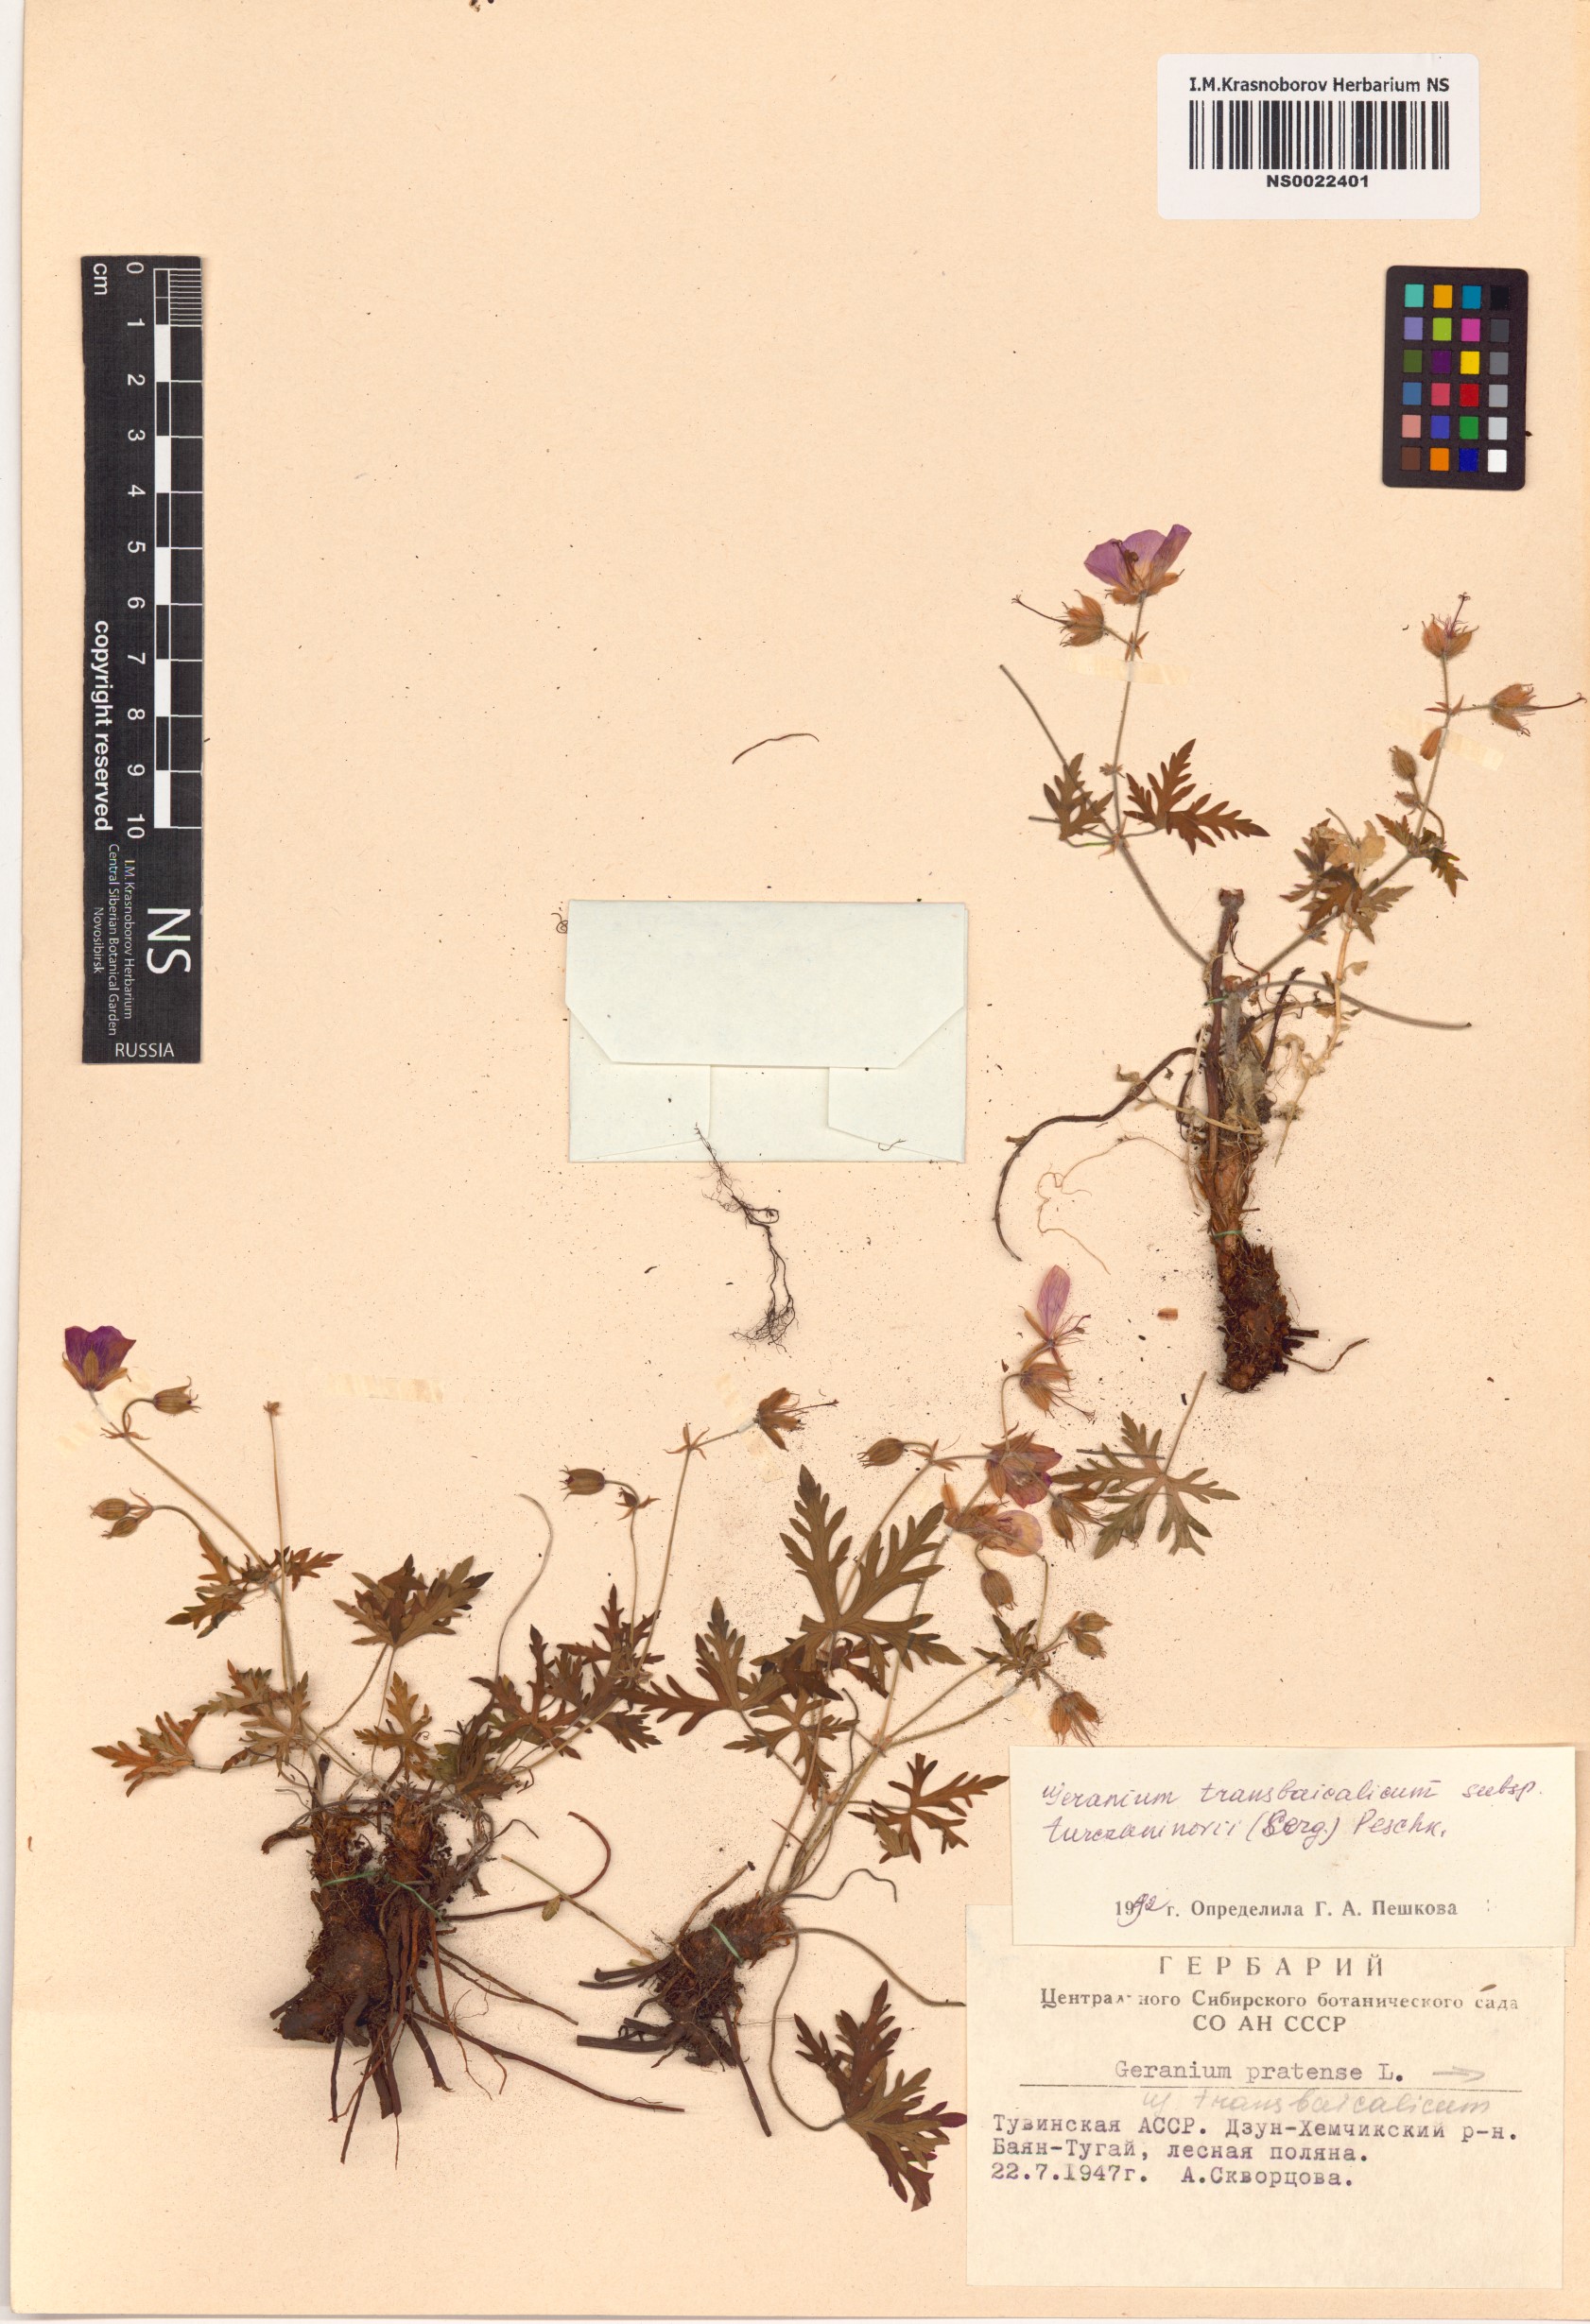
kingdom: Plantae
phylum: Tracheophyta
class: Magnoliopsida
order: Geraniales
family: Geraniaceae
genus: Geranium
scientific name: Geranium pratense
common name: Meadow crane's-bill
